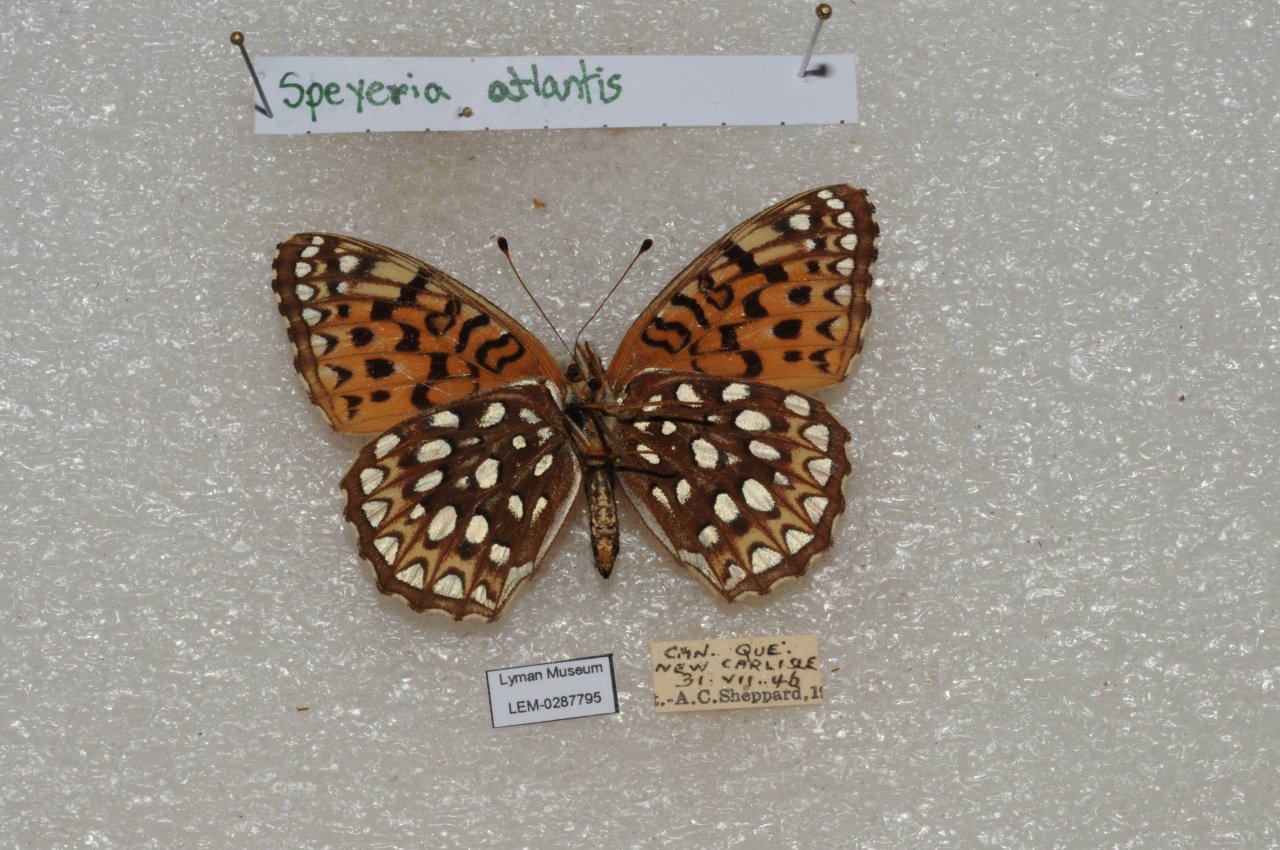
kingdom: Animalia
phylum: Arthropoda
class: Insecta
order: Lepidoptera
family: Nymphalidae
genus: Speyeria
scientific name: Speyeria atlantis
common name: Atlantis Fritillary
